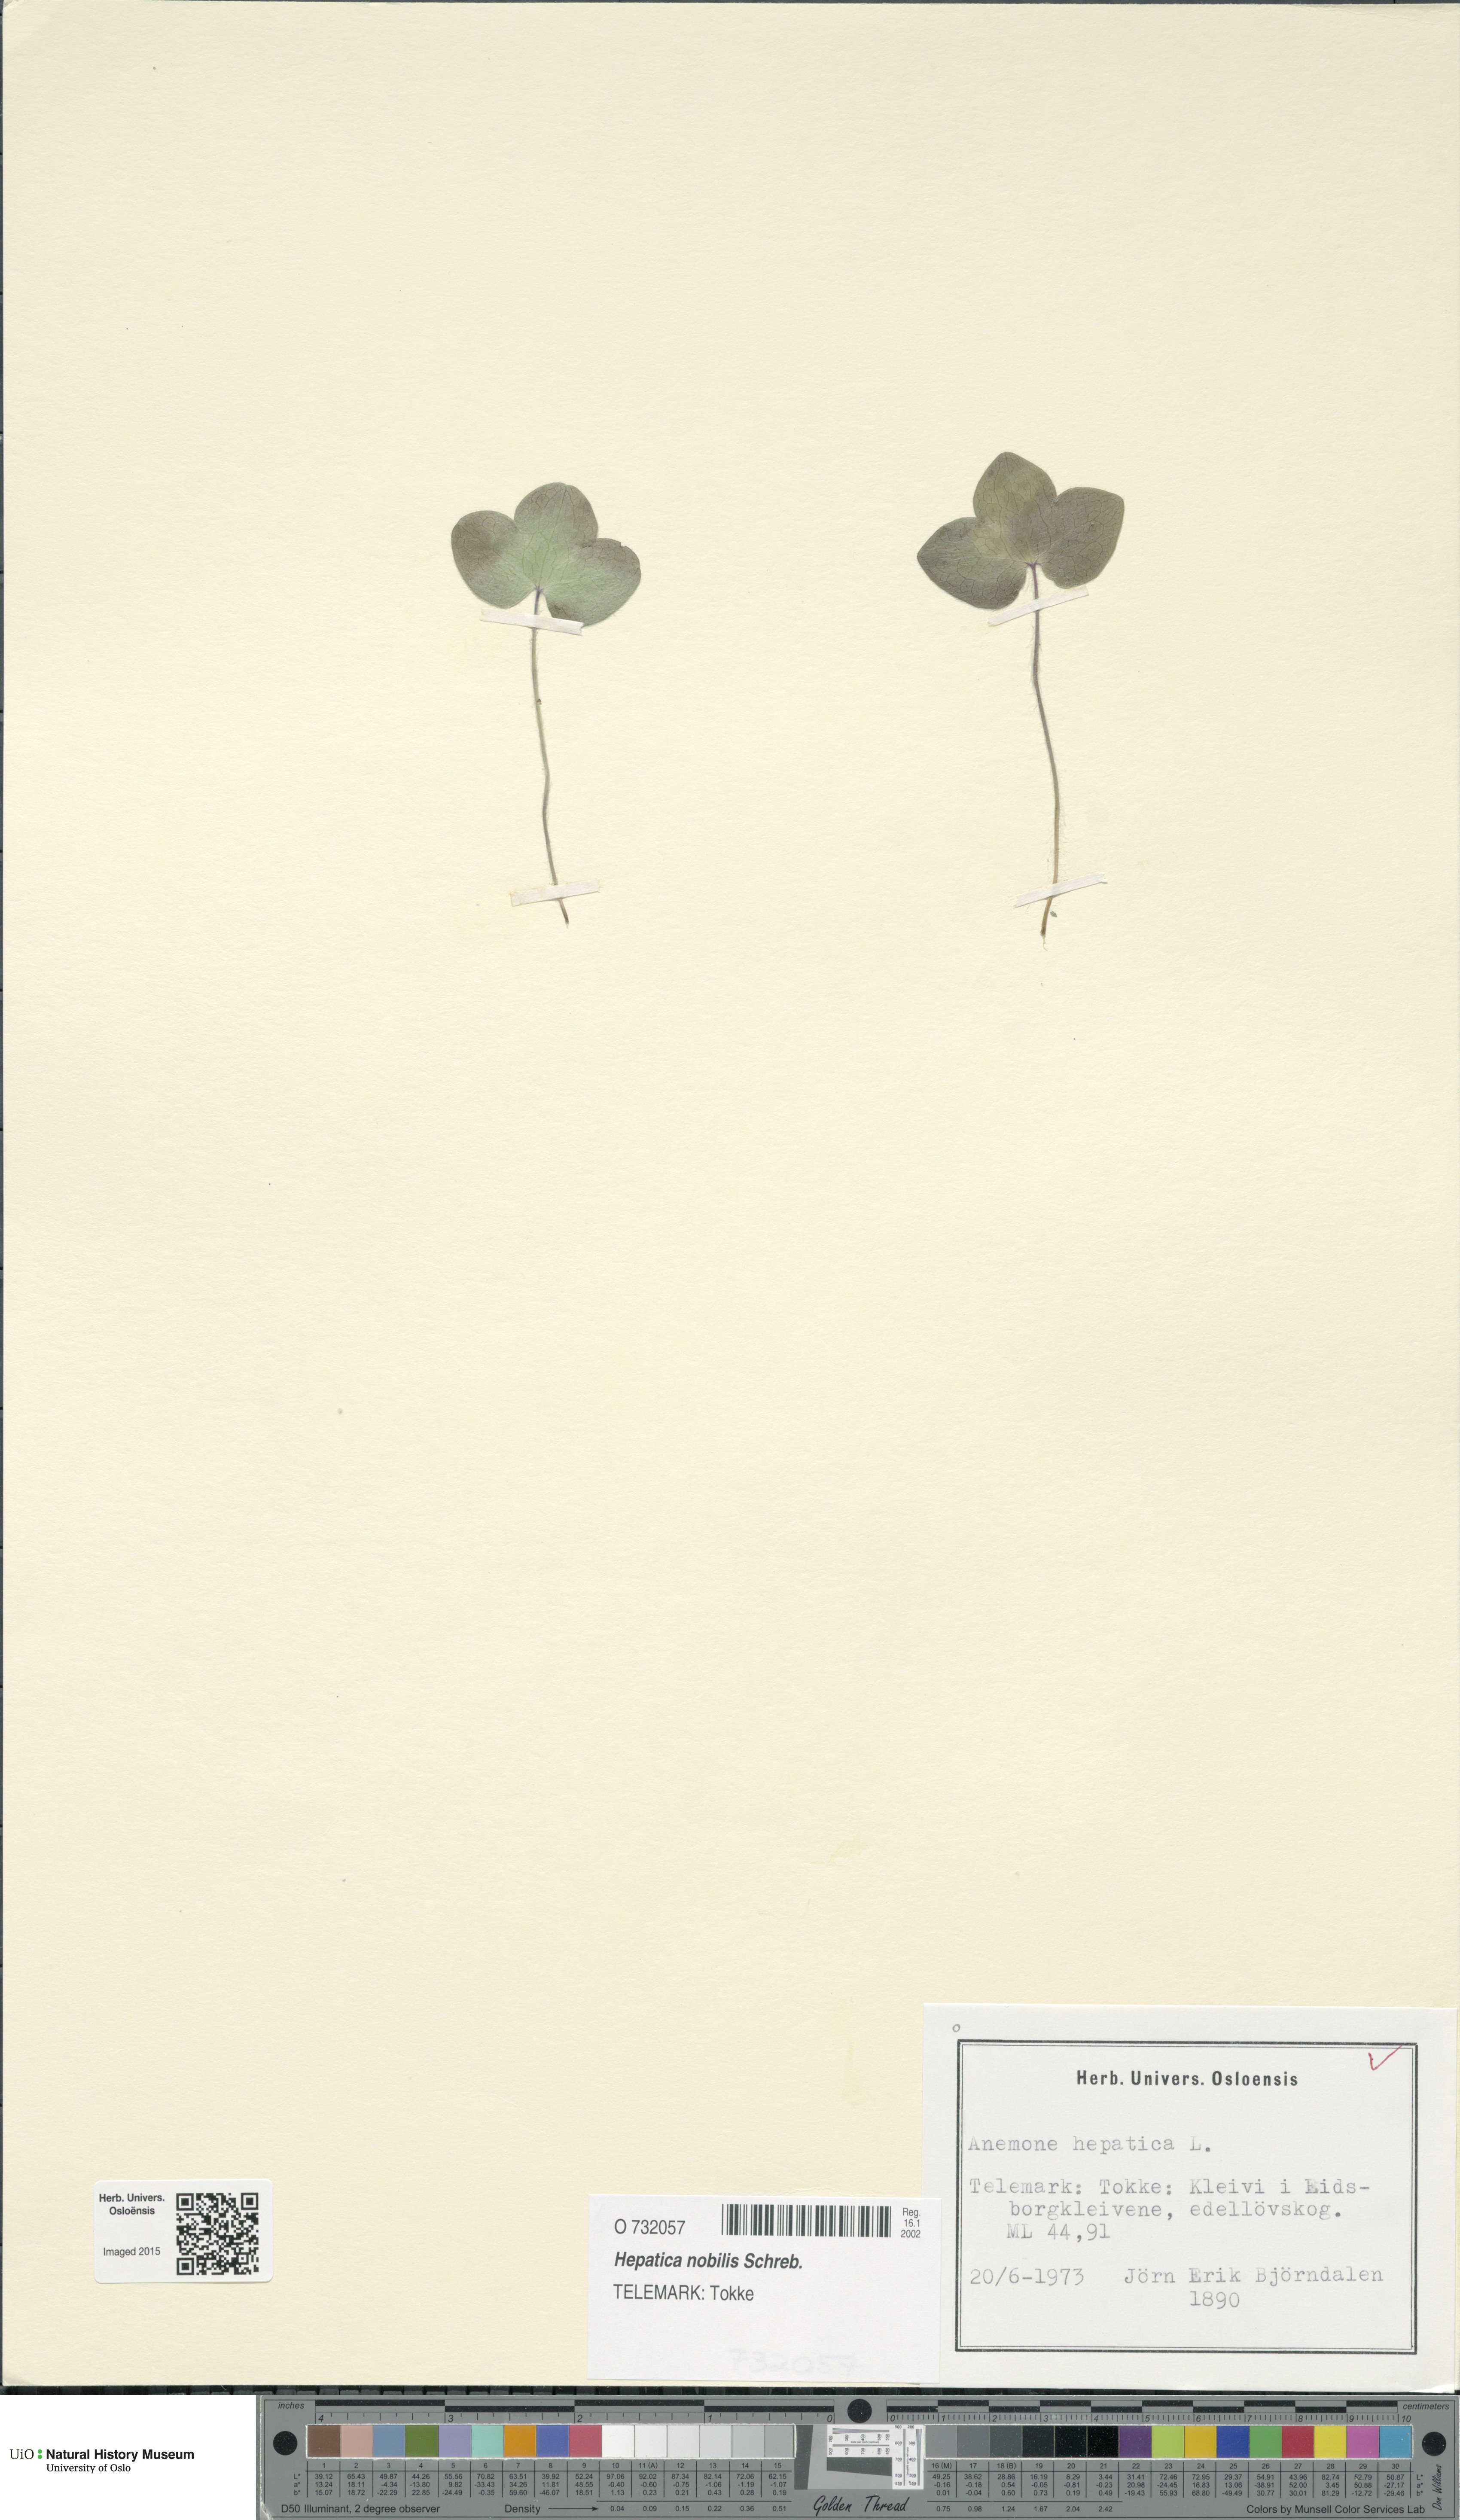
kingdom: Plantae
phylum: Tracheophyta
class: Magnoliopsida
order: Ranunculales
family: Ranunculaceae
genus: Hepatica
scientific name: Hepatica nobilis
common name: Liverleaf
